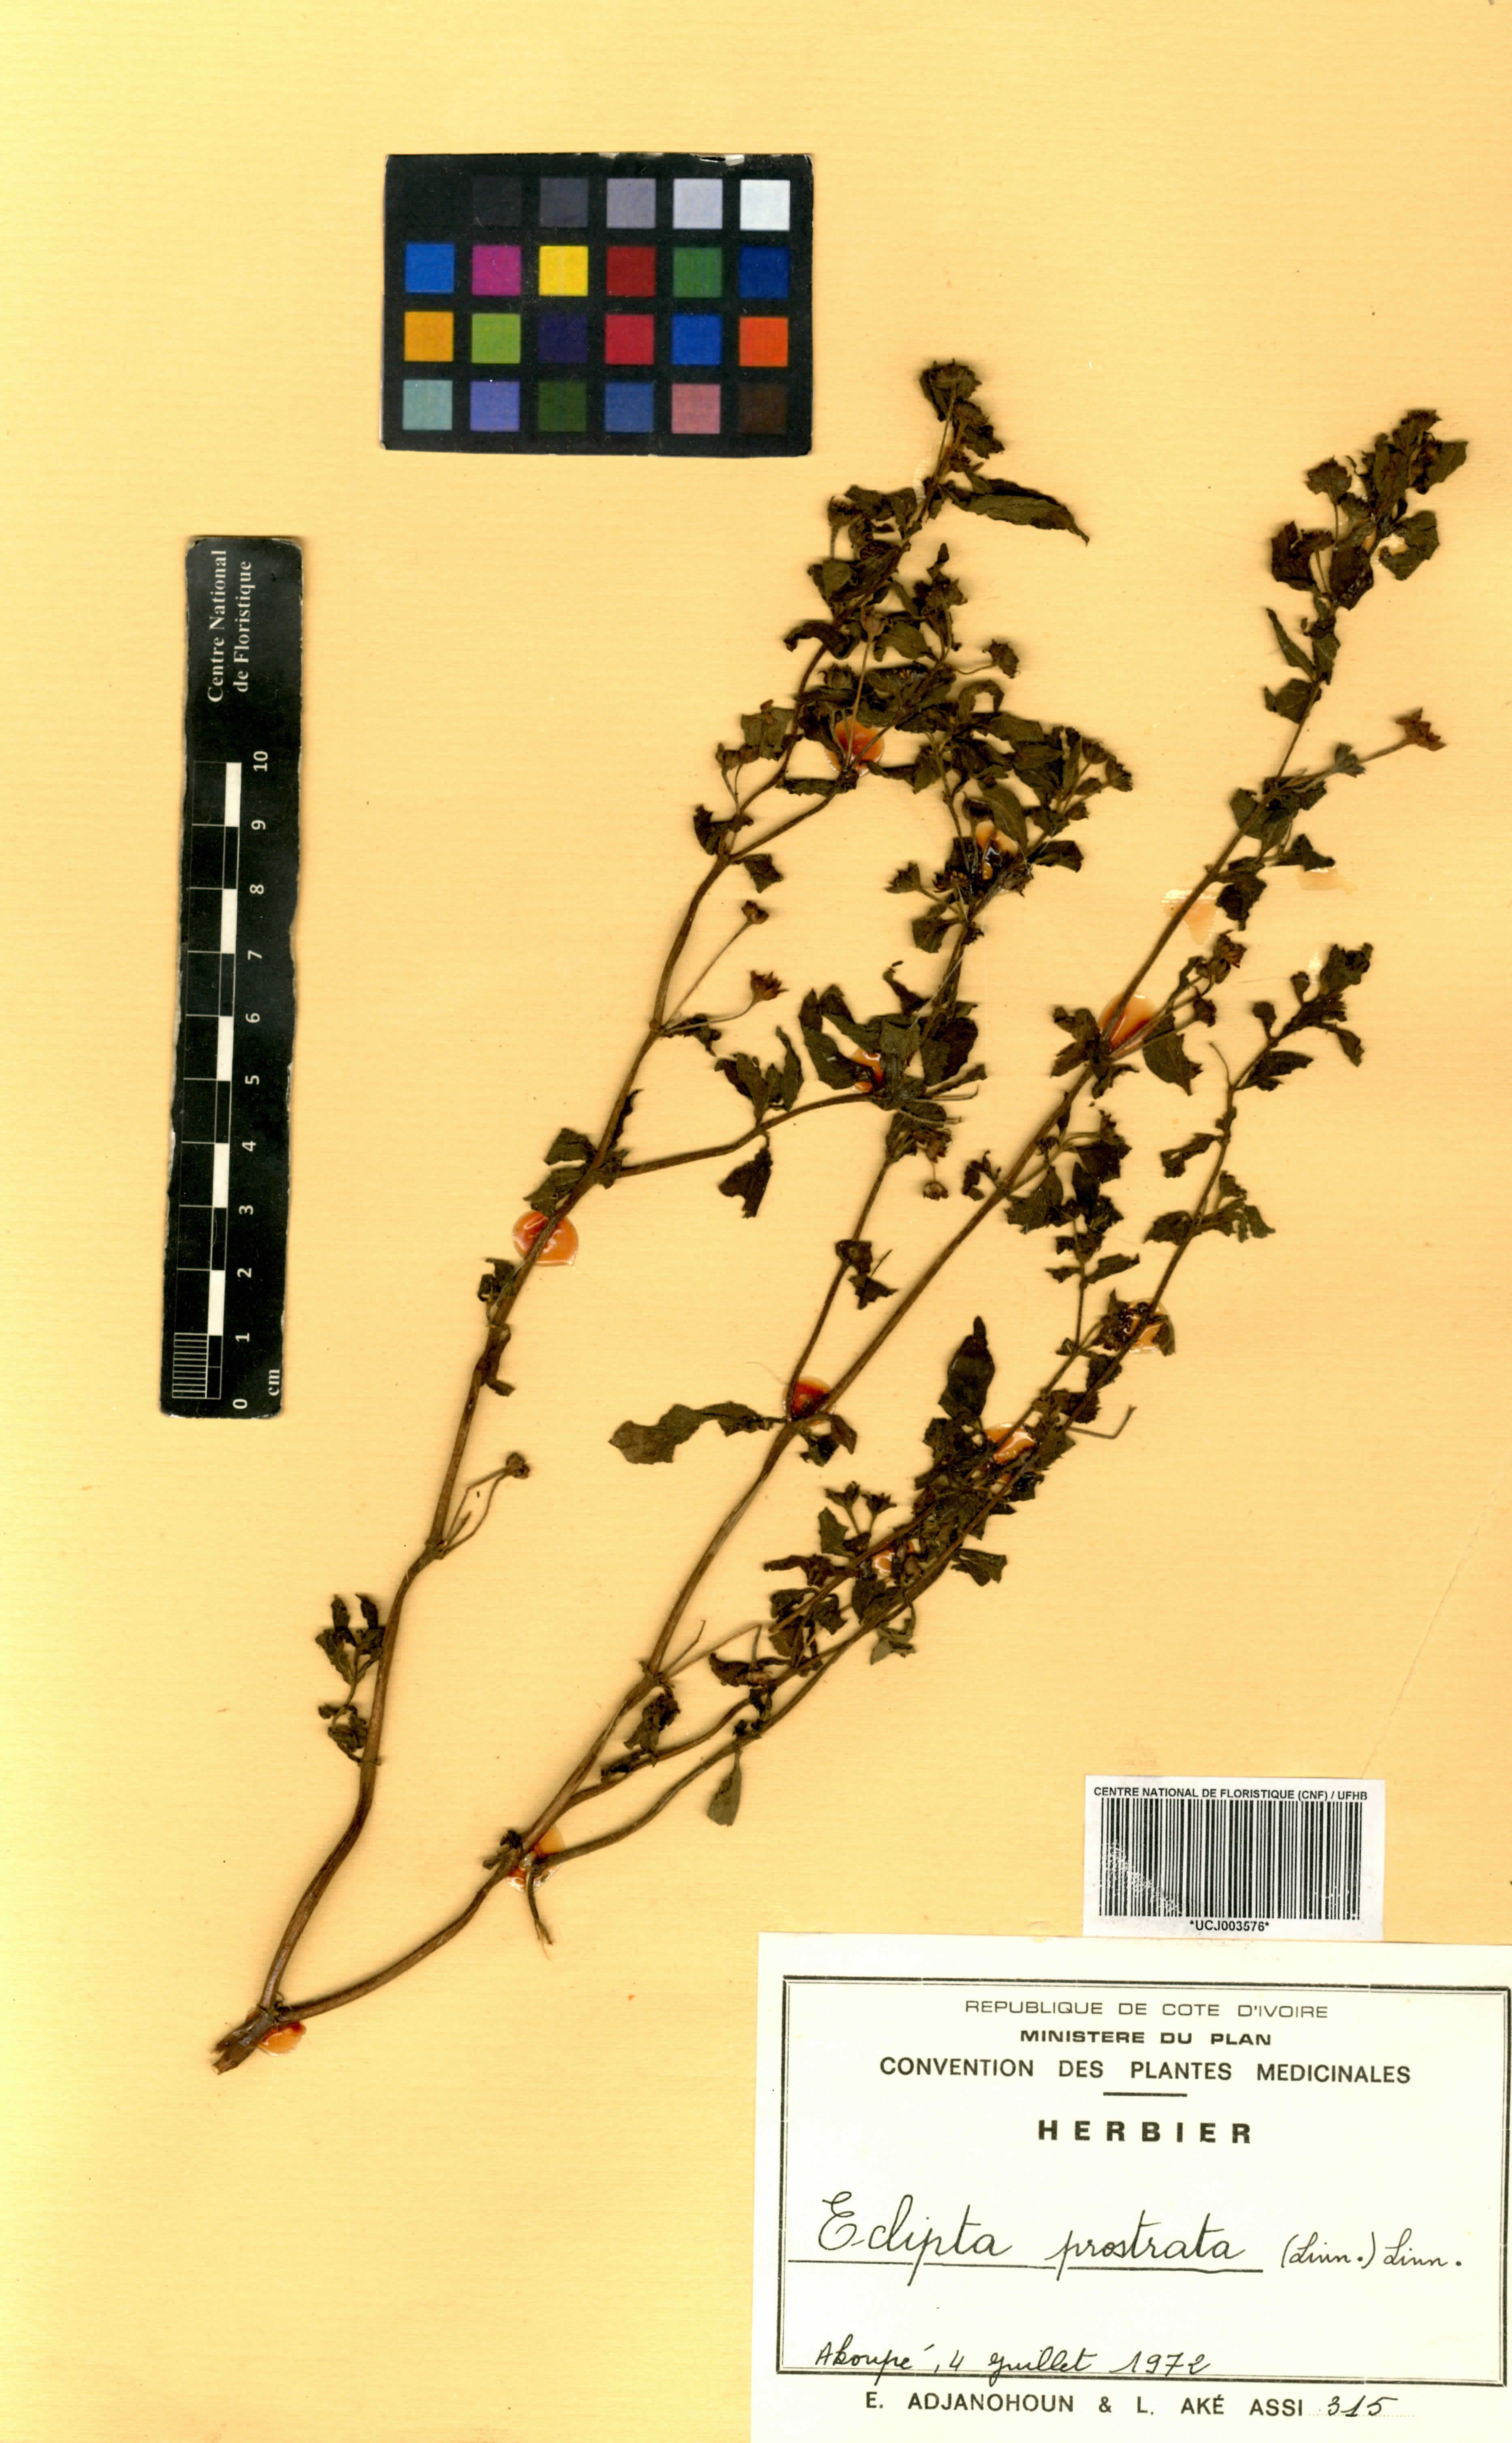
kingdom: Plantae
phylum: Tracheophyta
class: Magnoliopsida
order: Asterales
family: Asteraceae
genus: Eclipta
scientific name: Eclipta prostrata
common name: False daisy
